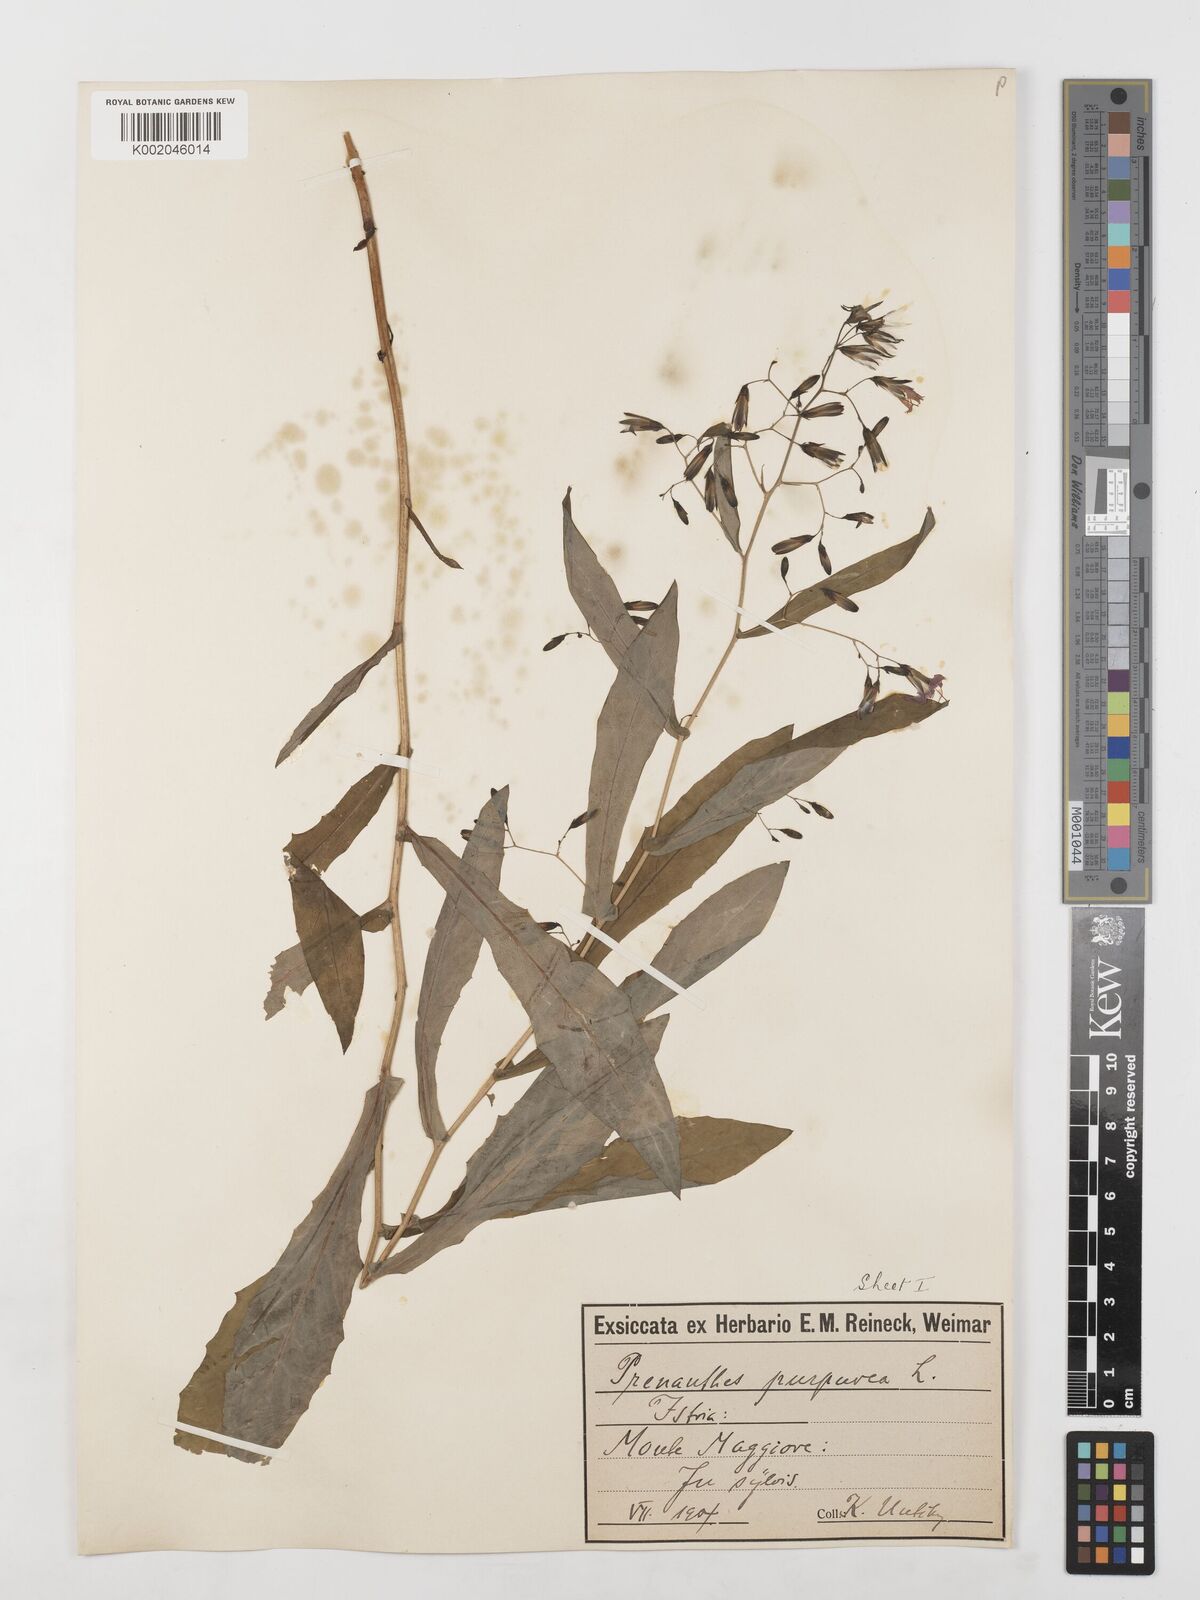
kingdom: Plantae
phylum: Tracheophyta
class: Magnoliopsida
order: Asterales
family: Asteraceae
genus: Prenanthes
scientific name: Prenanthes purpurea
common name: Purple lettuce
